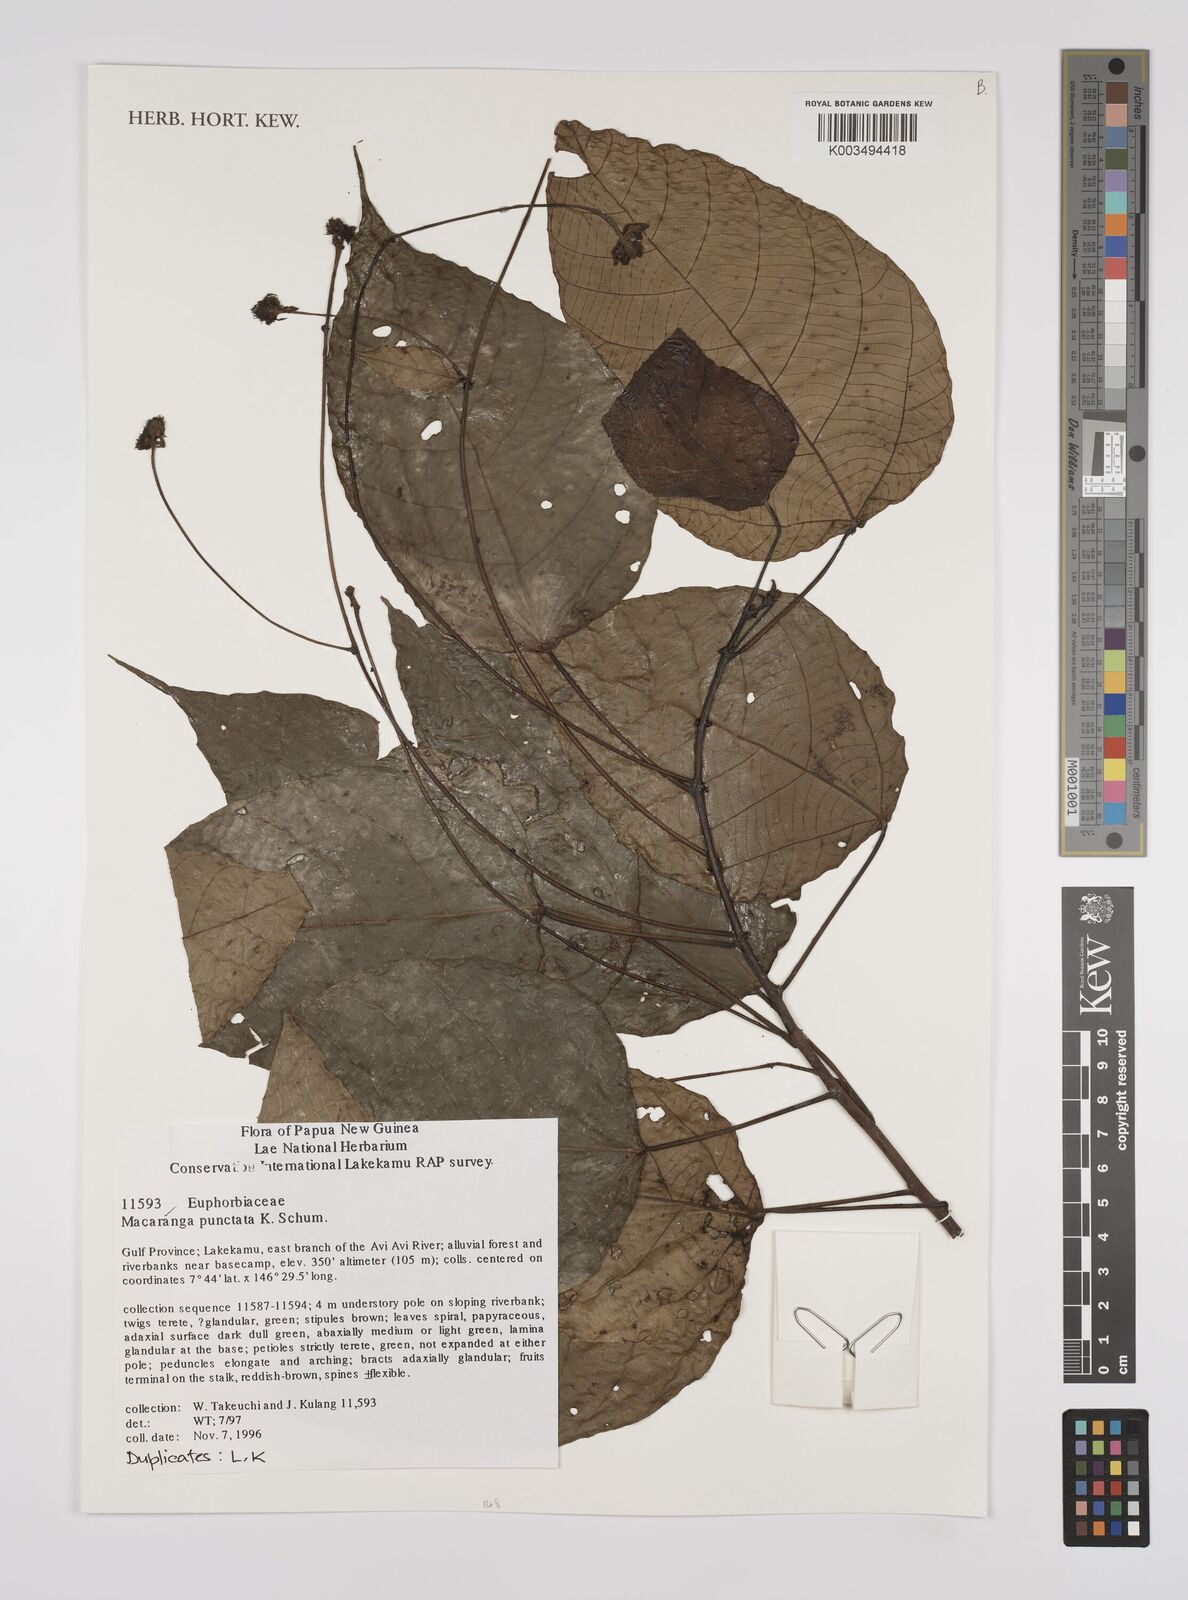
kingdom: Plantae
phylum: Tracheophyta
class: Magnoliopsida
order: Malpighiales
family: Euphorbiaceae
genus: Macaranga
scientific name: Macaranga punctata
